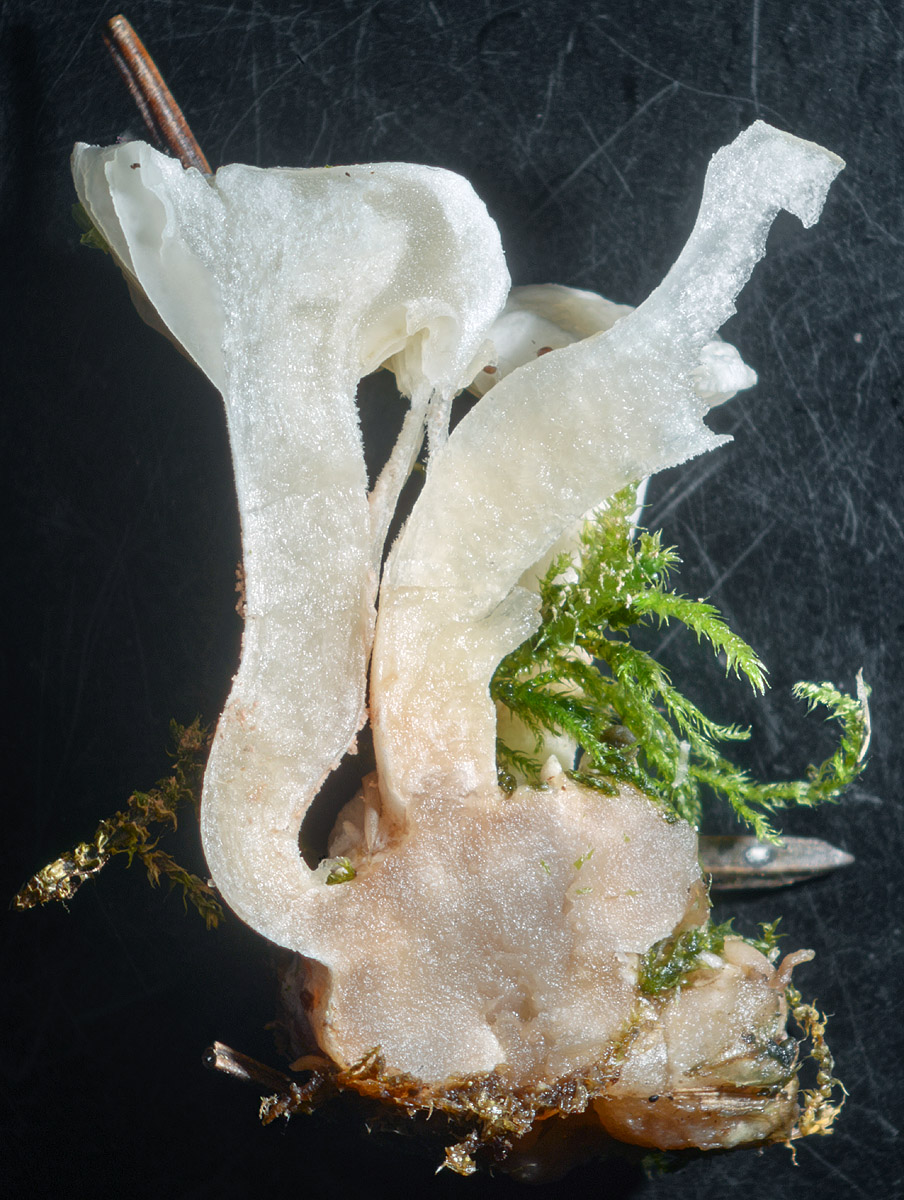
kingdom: Fungi
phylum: Basidiomycota
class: Agaricomycetes
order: Agaricales
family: Tricholomataceae
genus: Ripartites
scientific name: Ripartites
